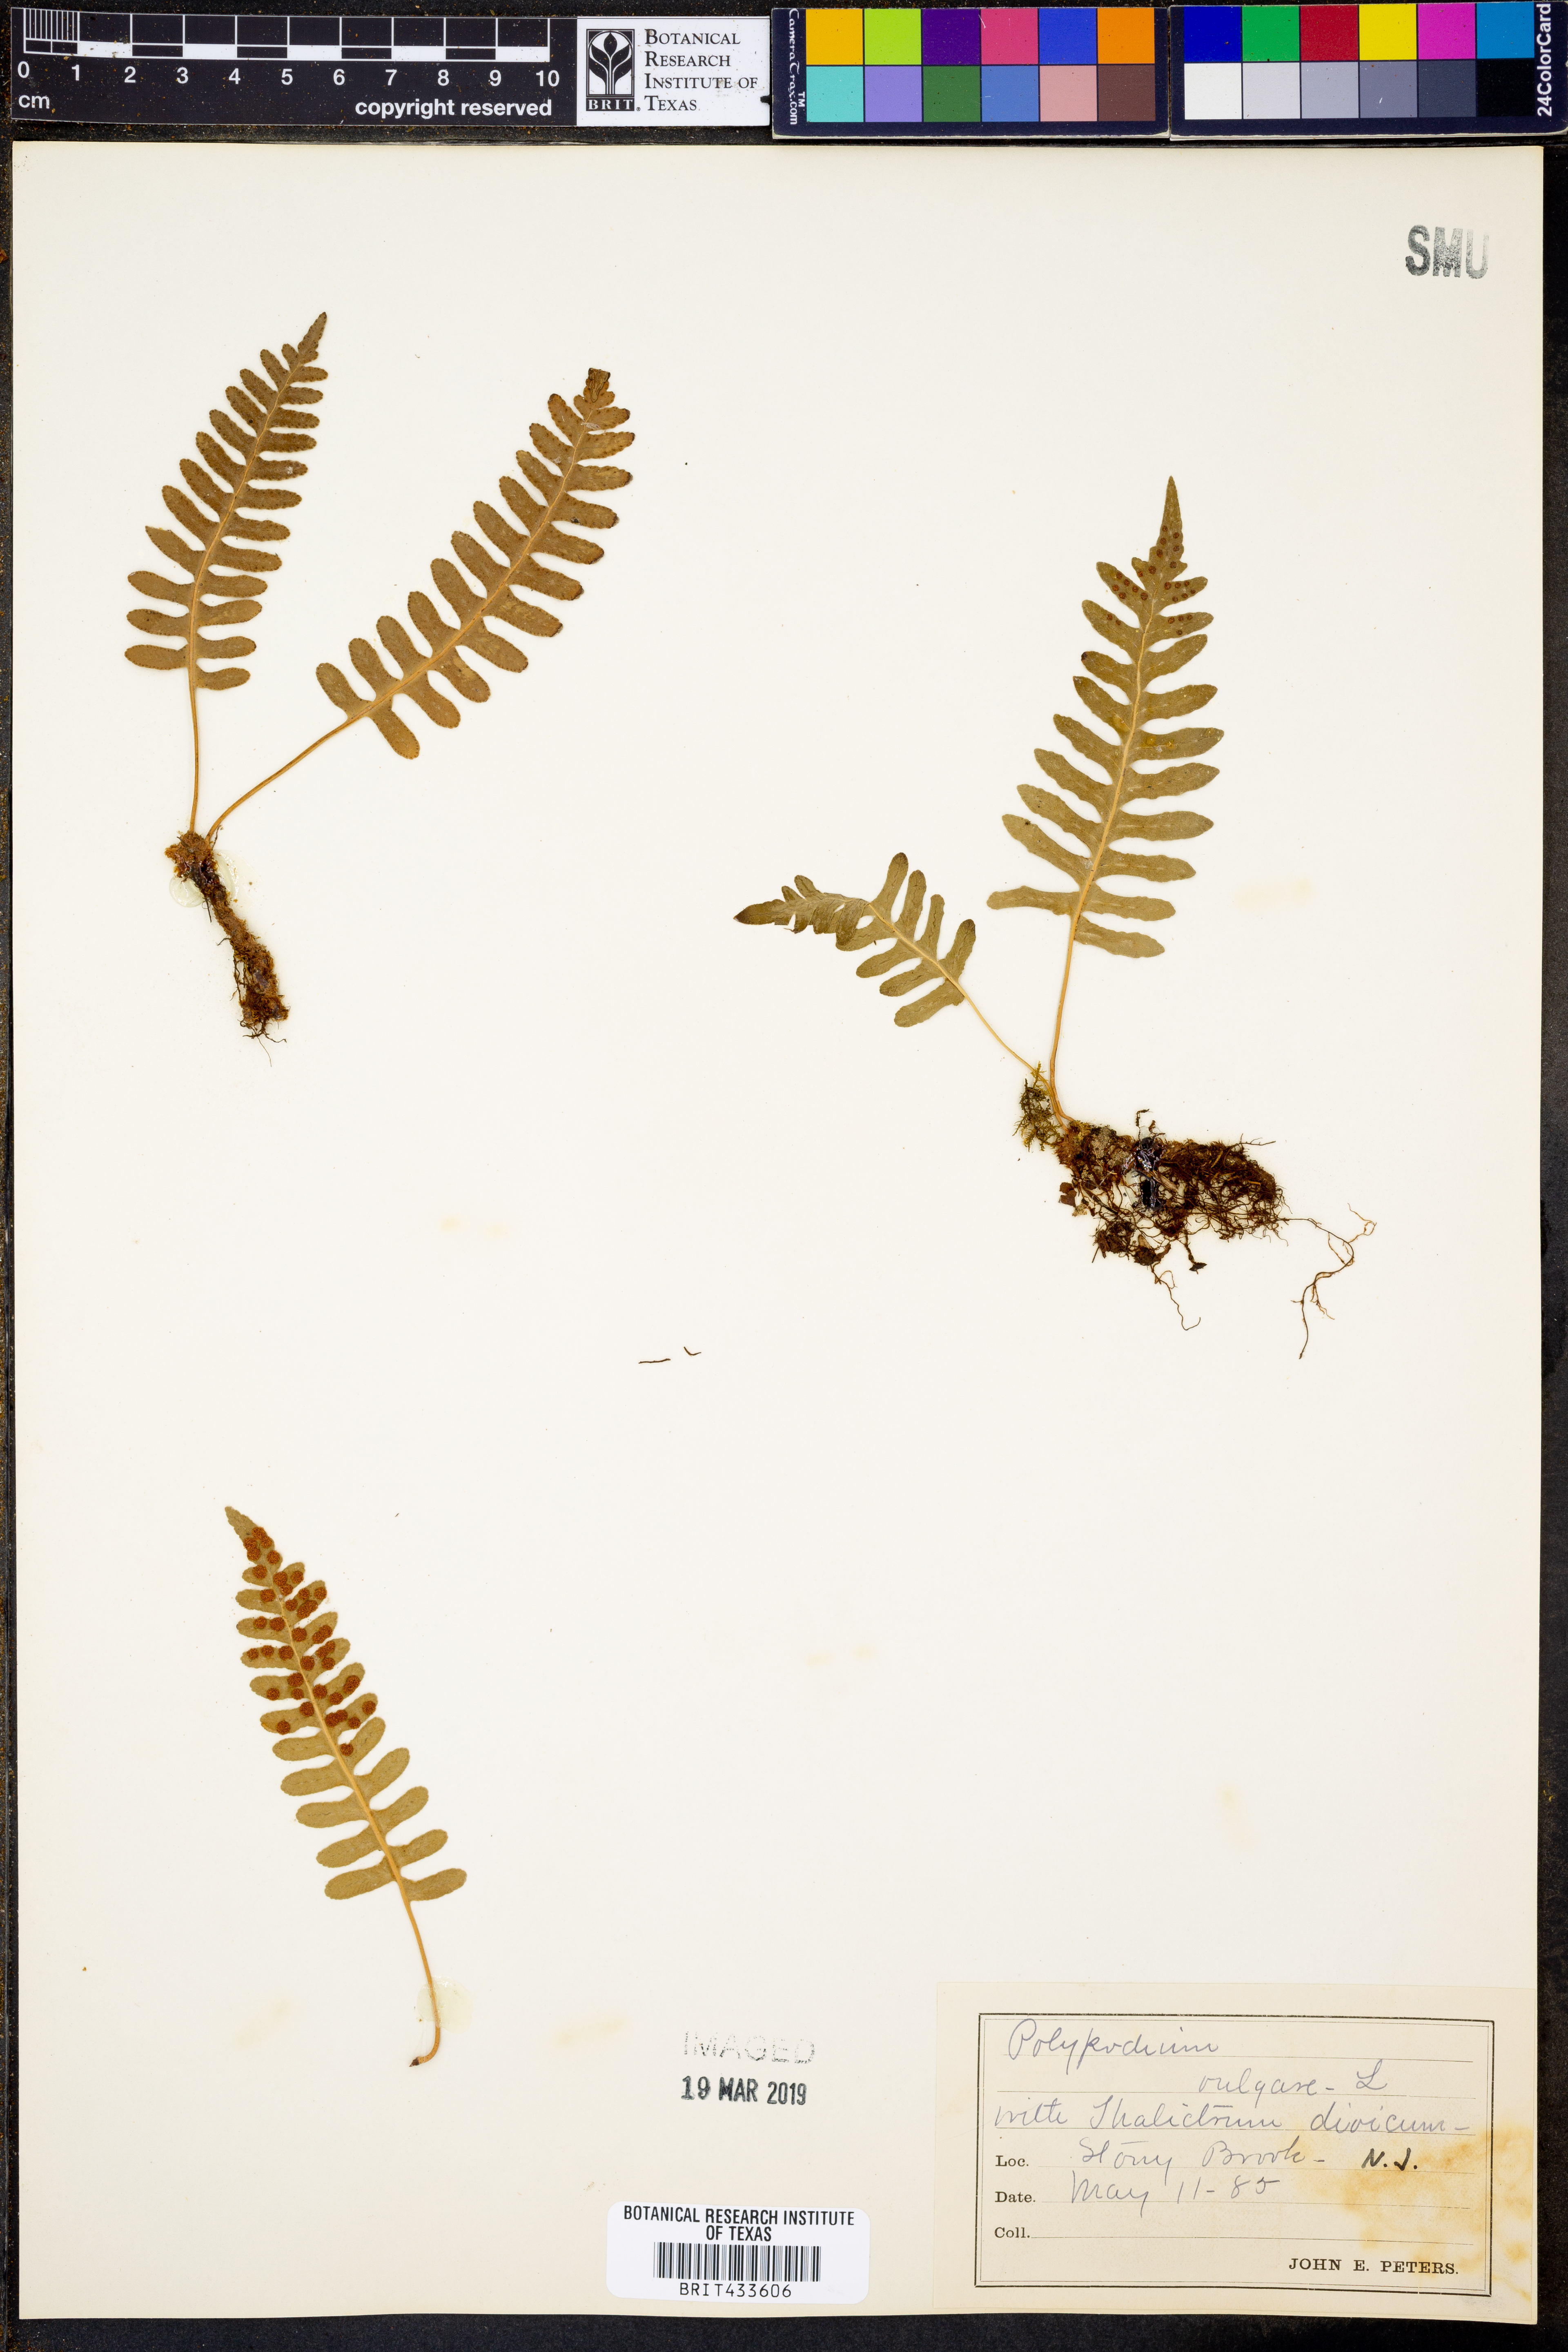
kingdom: Plantae
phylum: Tracheophyta
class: Polypodiopsida
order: Polypodiales
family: Polypodiaceae
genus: Polypodium
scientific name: Polypodium vulgare
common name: Common polypody
